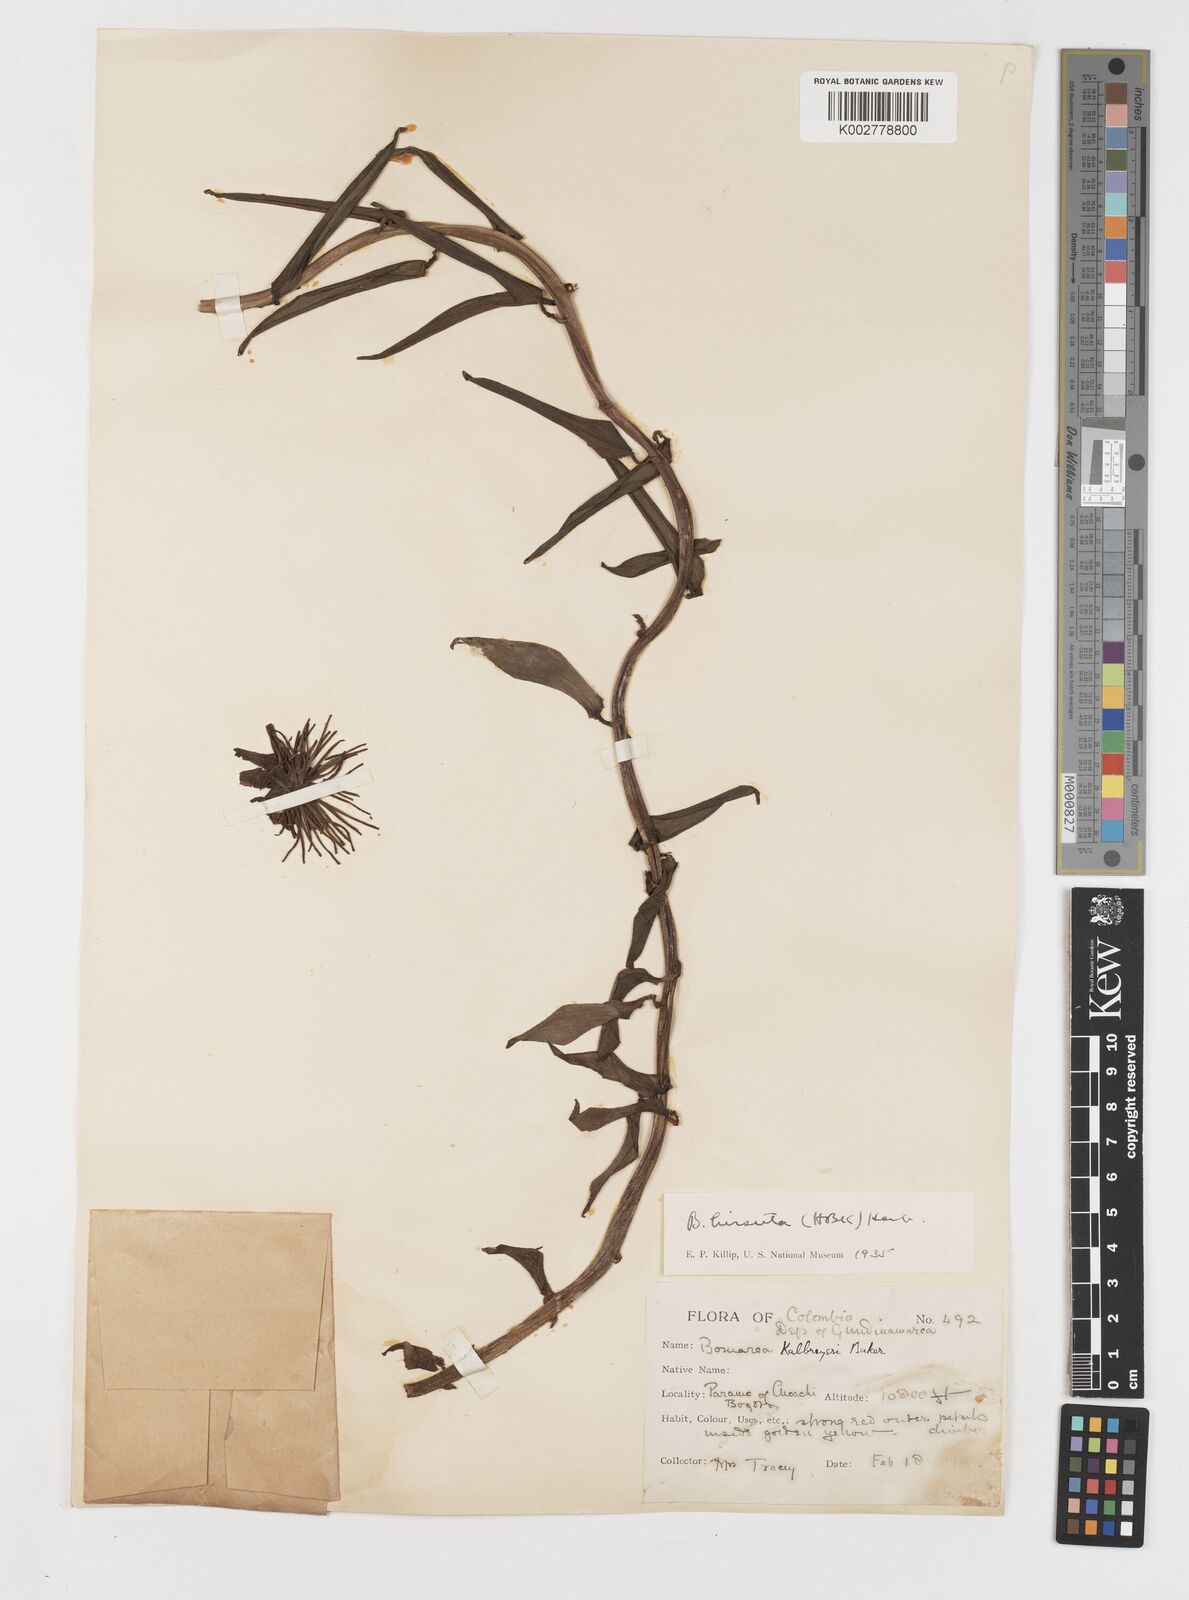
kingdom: Plantae
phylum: Tracheophyta
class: Liliopsida
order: Liliales
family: Alstroemeriaceae
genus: Bomarea
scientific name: Bomarea hirsuta
